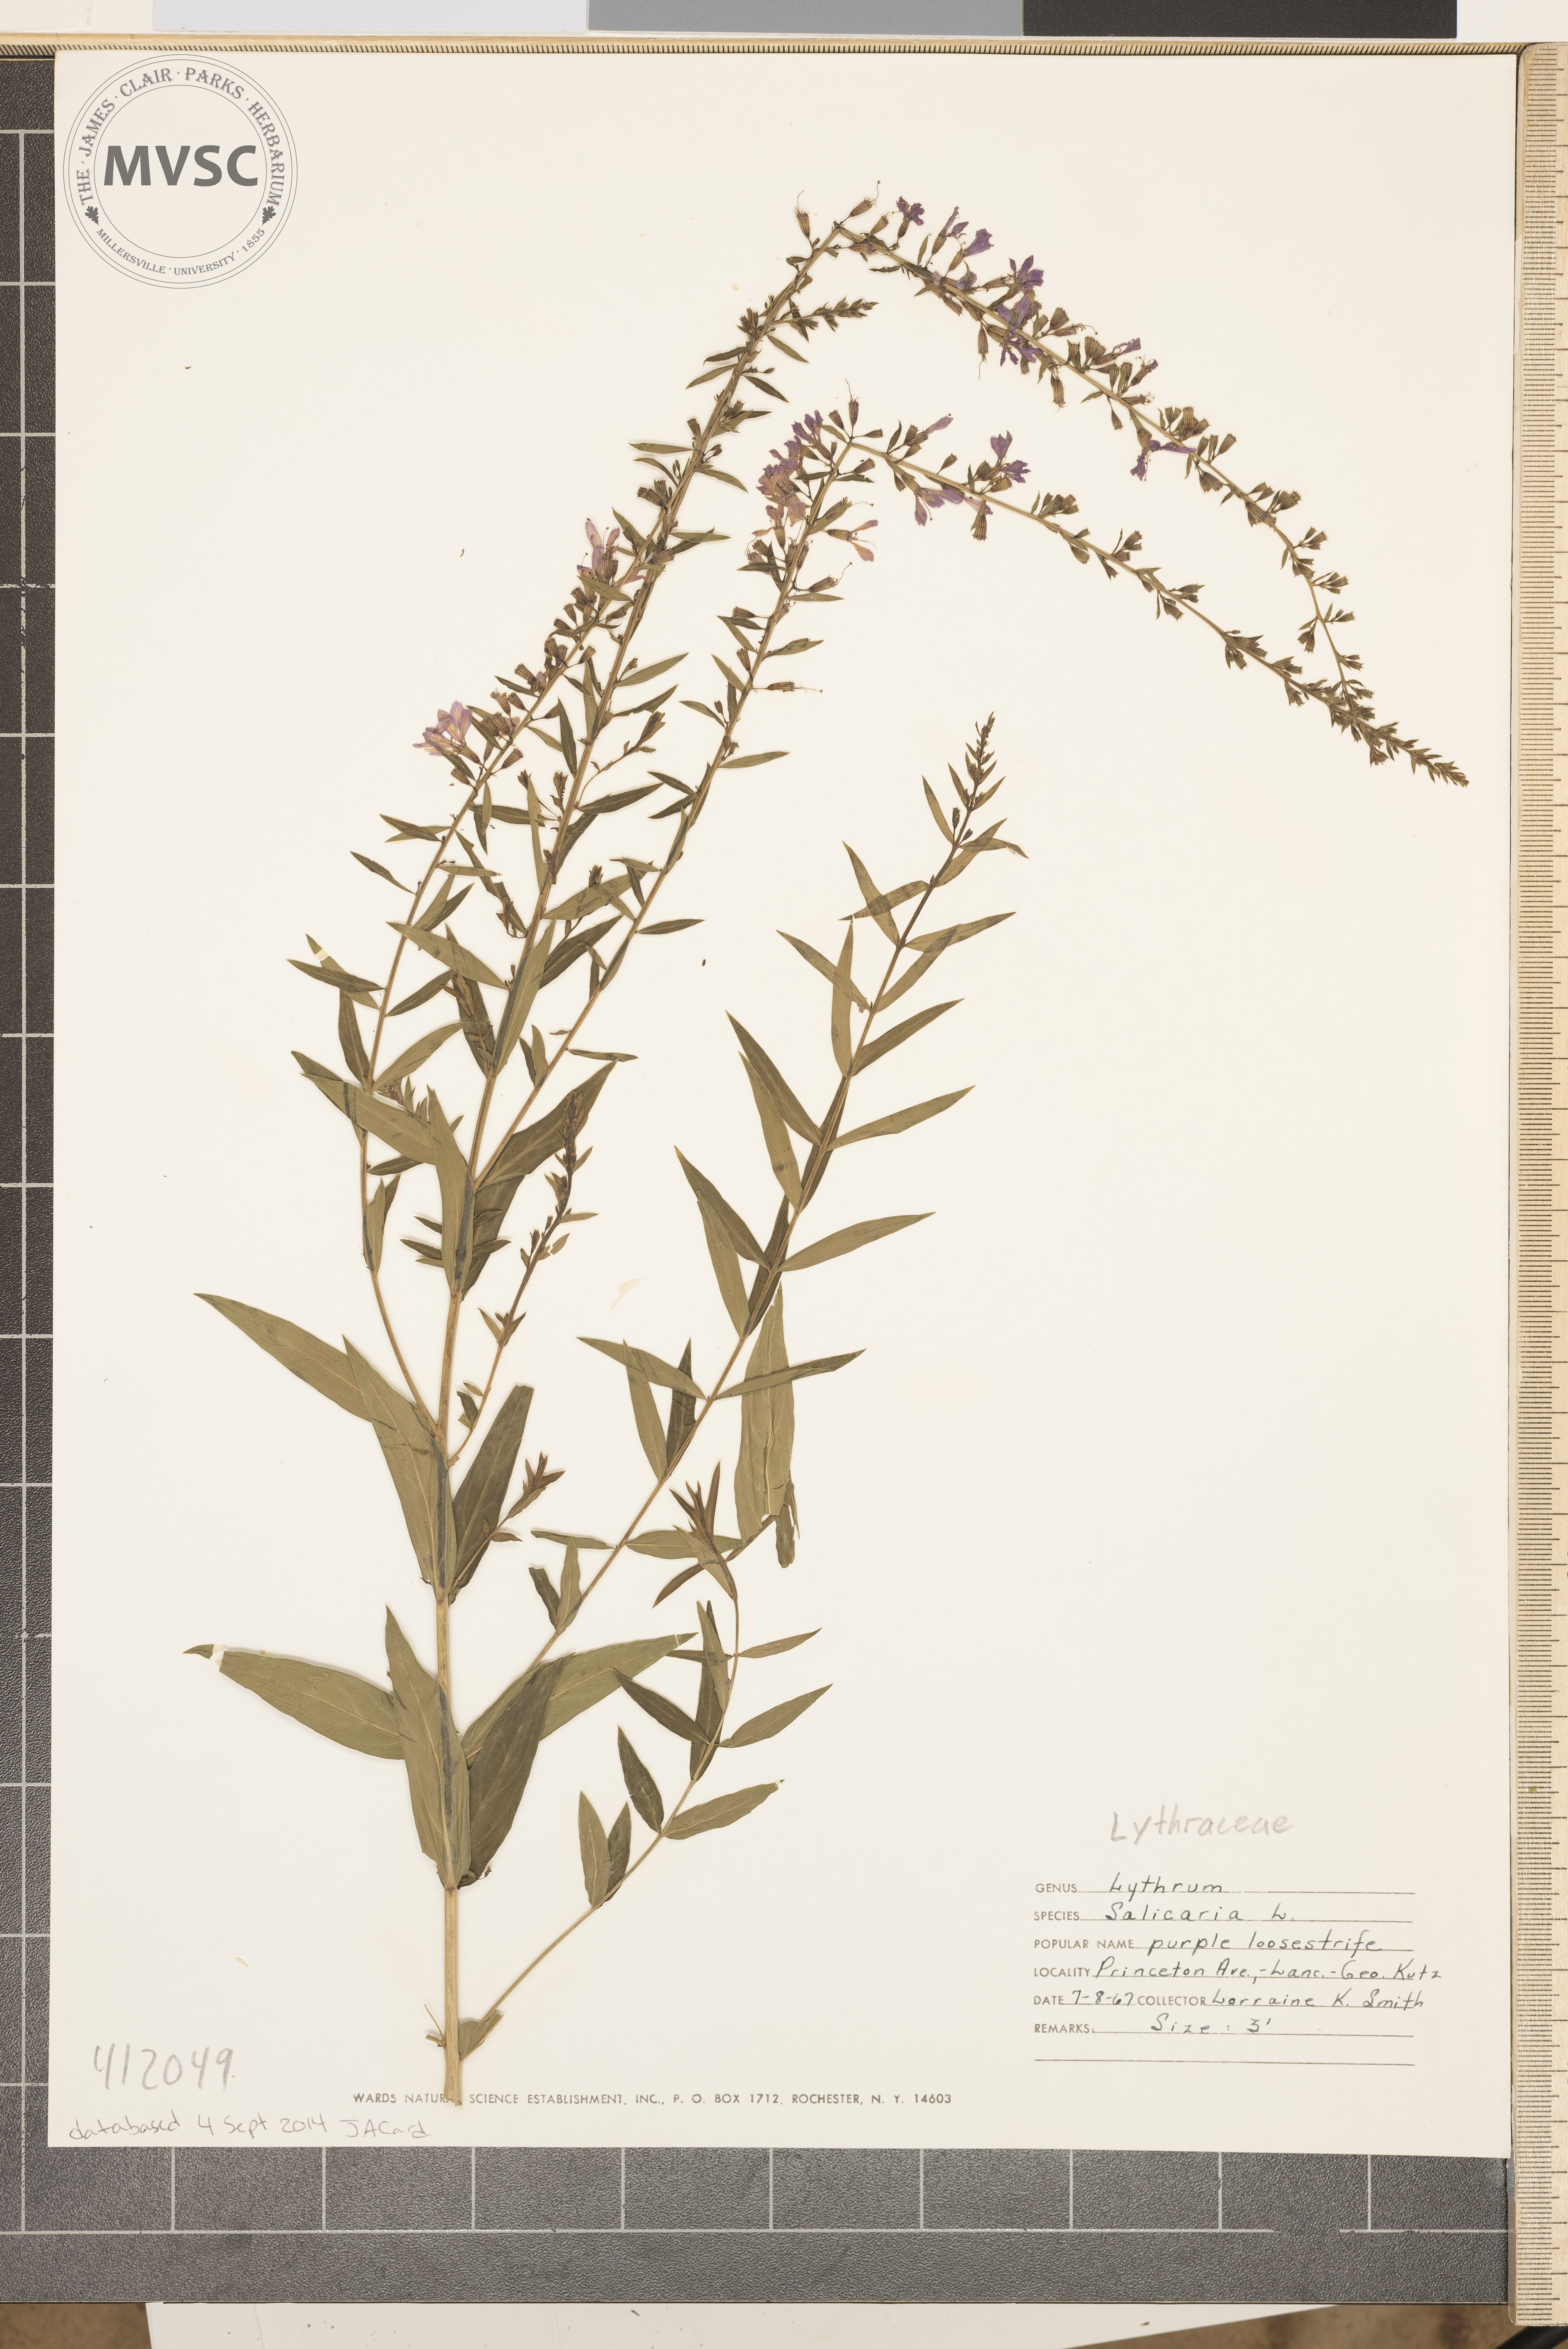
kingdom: Plantae
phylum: Tracheophyta
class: Magnoliopsida
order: Myrtales
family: Lythraceae
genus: Lythrum
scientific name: Lythrum salicaria
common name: Purple loosestrife
